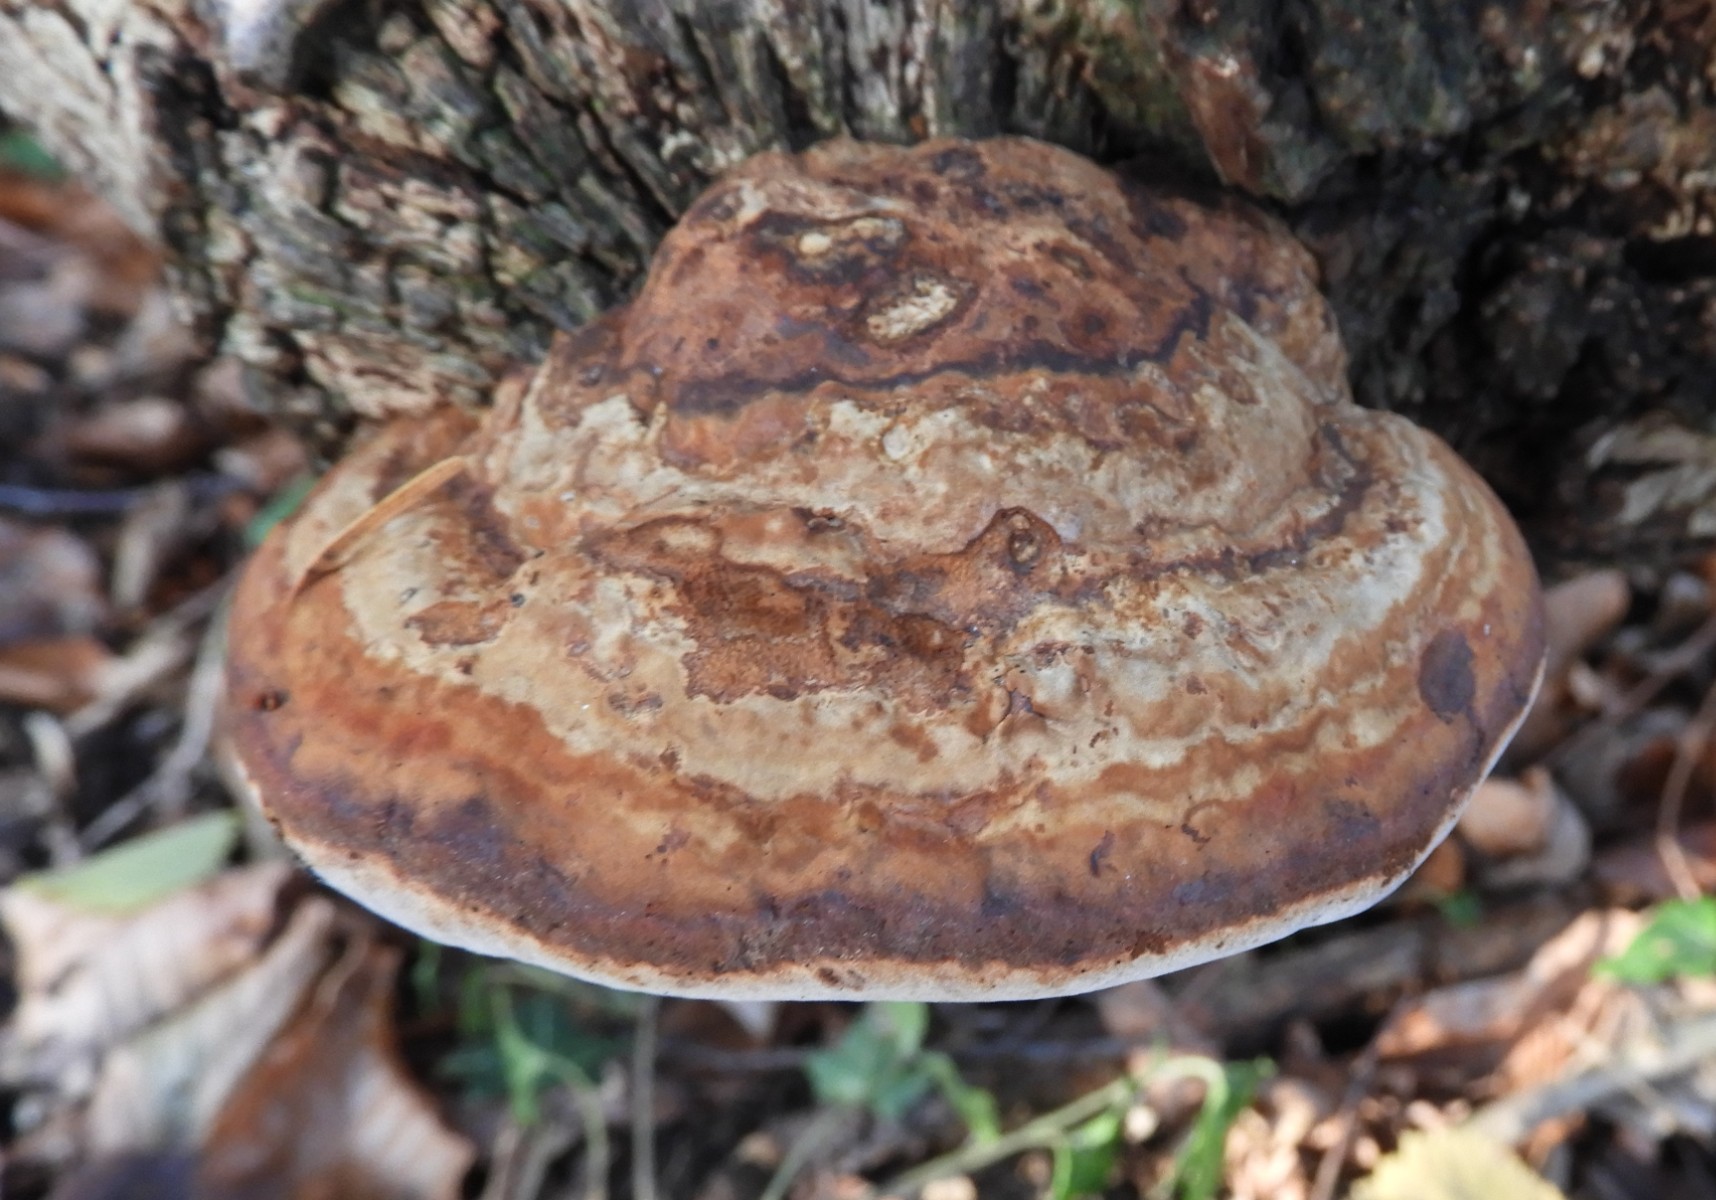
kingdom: Fungi
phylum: Basidiomycota
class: Agaricomycetes
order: Polyporales
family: Polyporaceae
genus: Fomes
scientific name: Fomes fomentarius
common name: tøndersvamp
